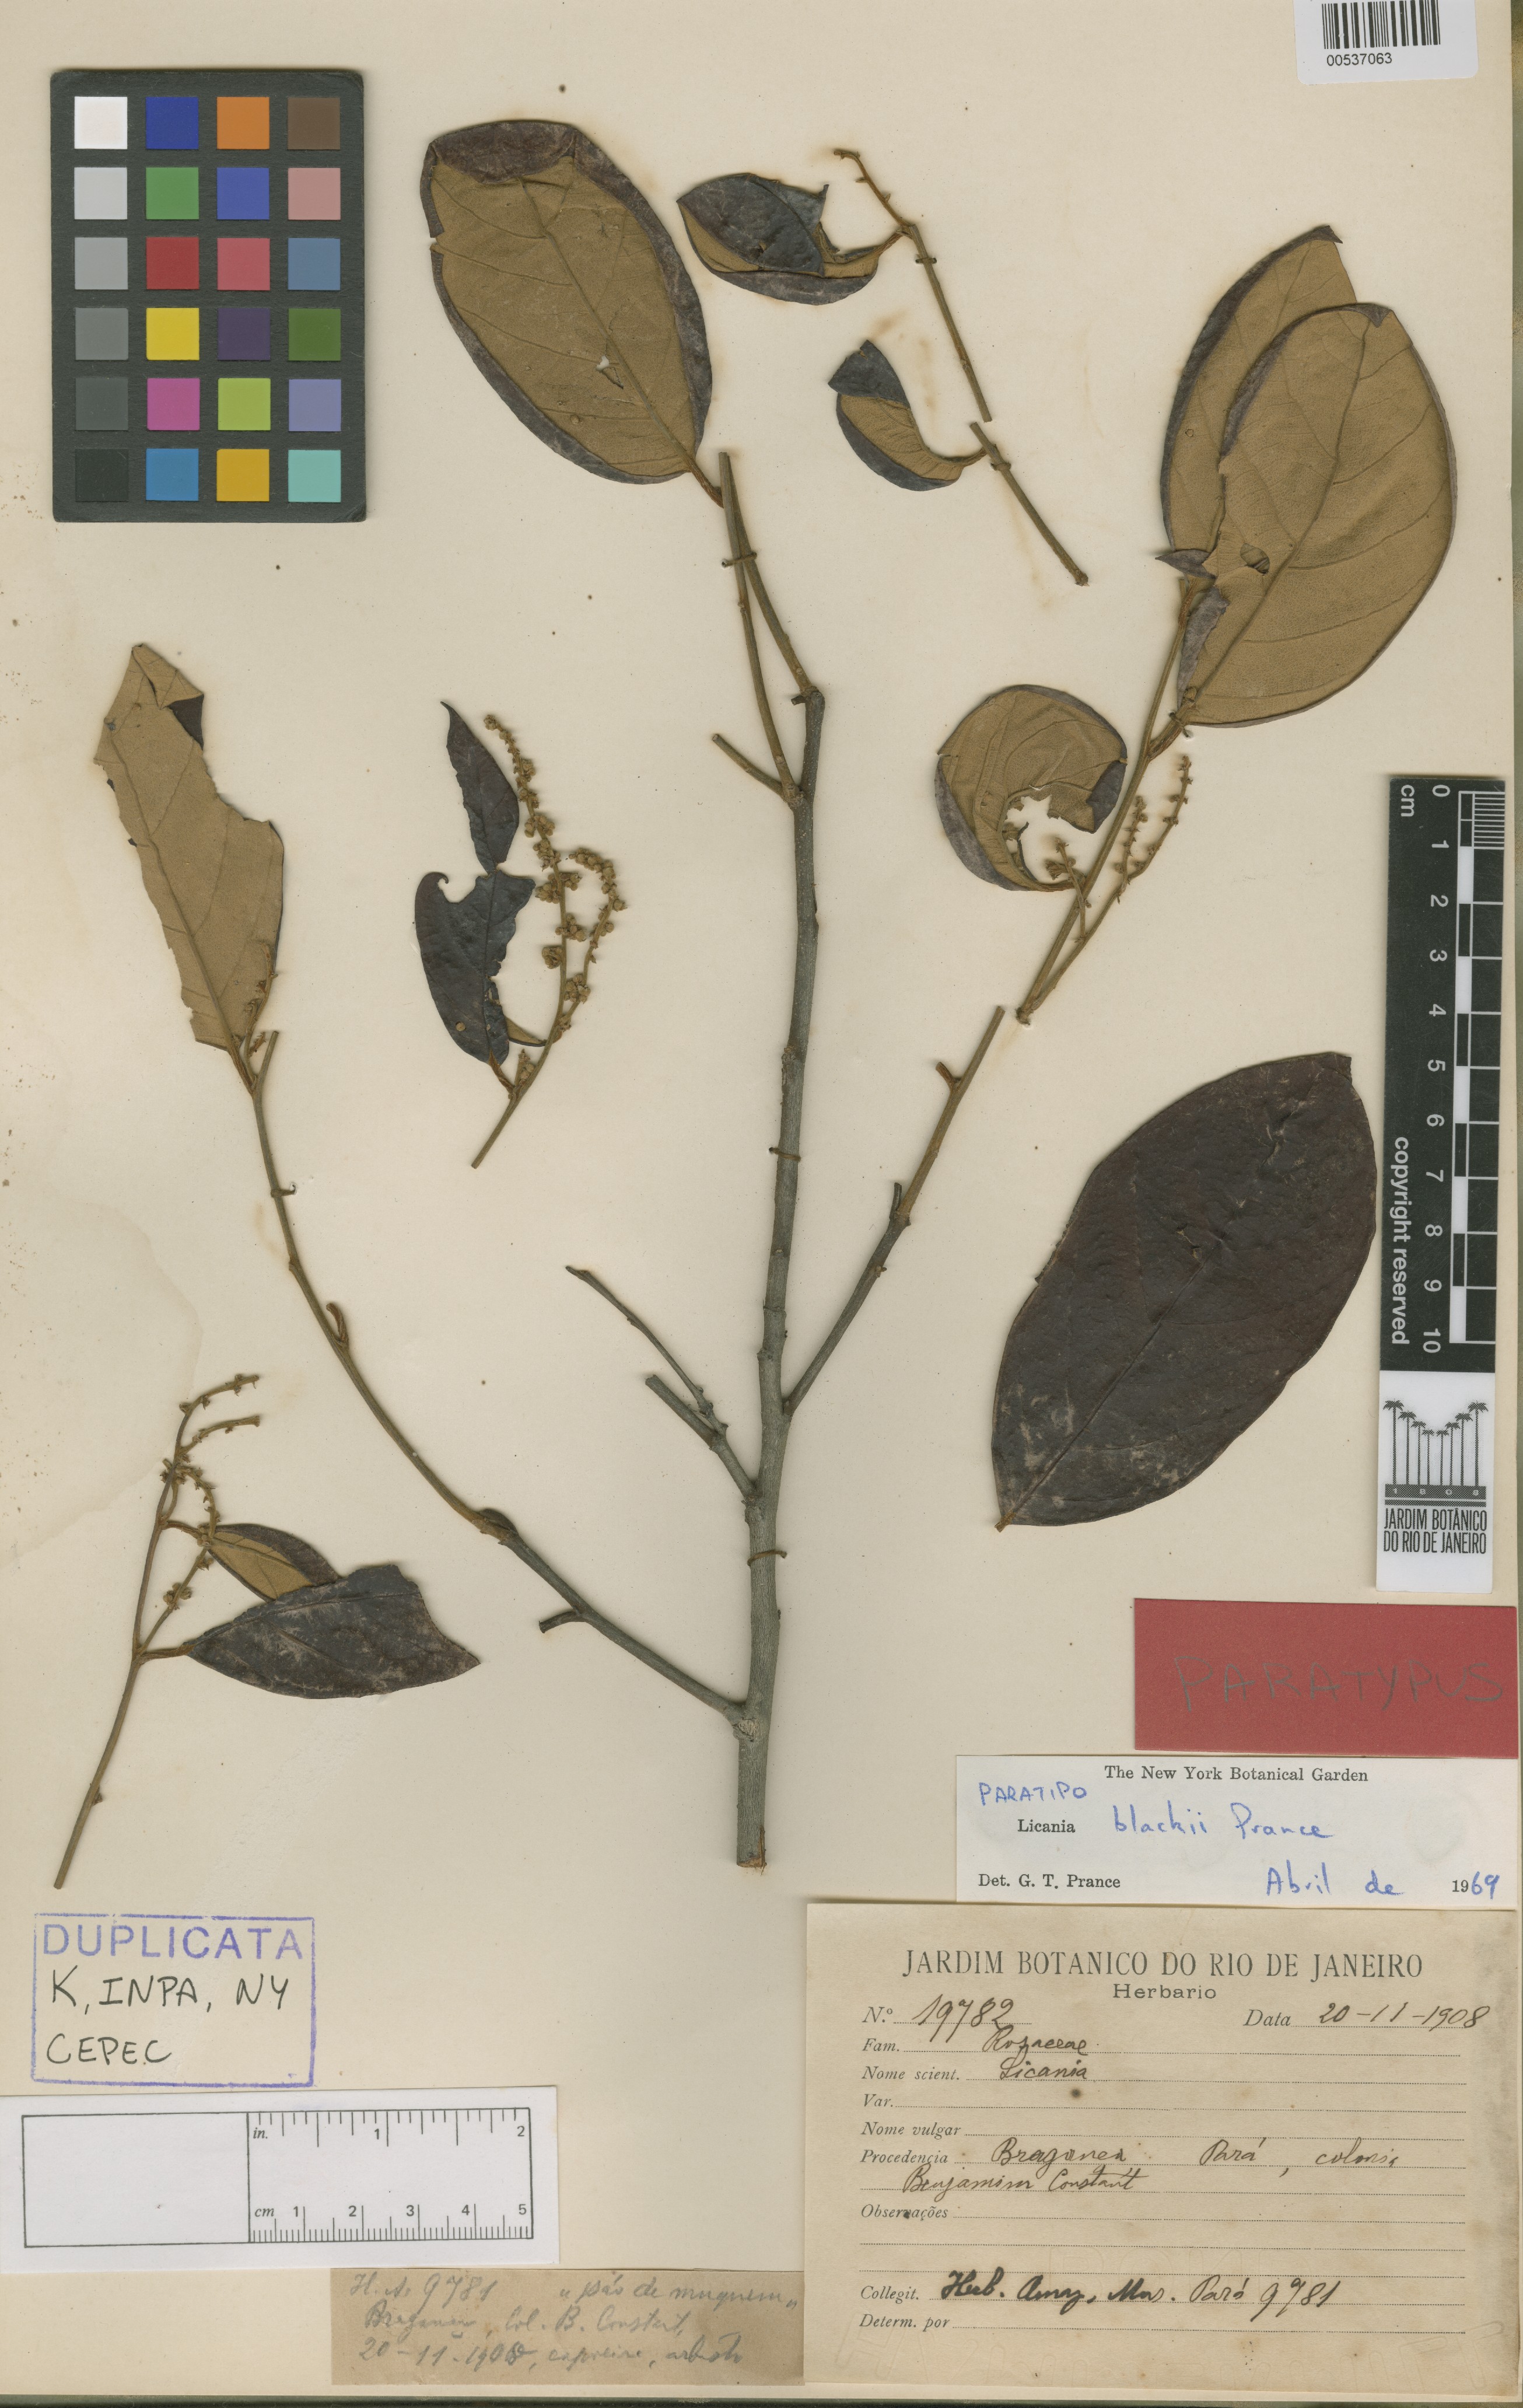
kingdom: Plantae
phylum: Tracheophyta
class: Magnoliopsida
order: Malpighiales
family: Chrysobalanaceae
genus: Licania
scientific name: Licania blackii
